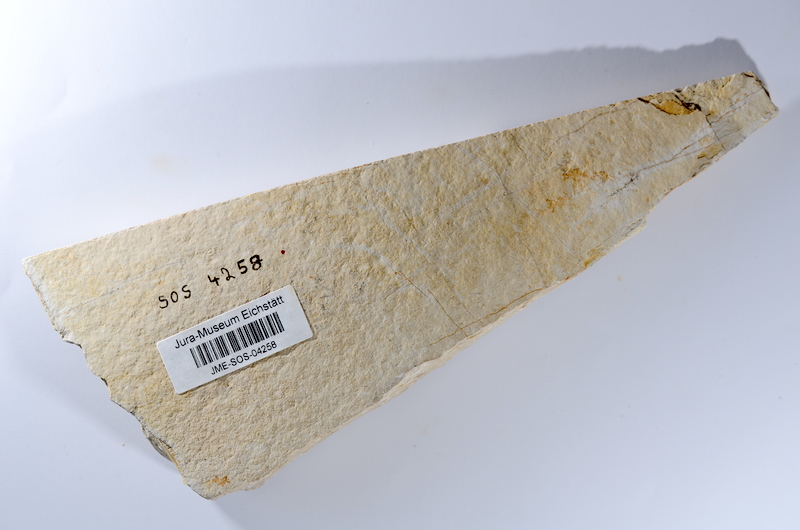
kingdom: Animalia
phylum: Chordata
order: Amiiformes
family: Caturidae
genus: Caturus
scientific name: Caturus
